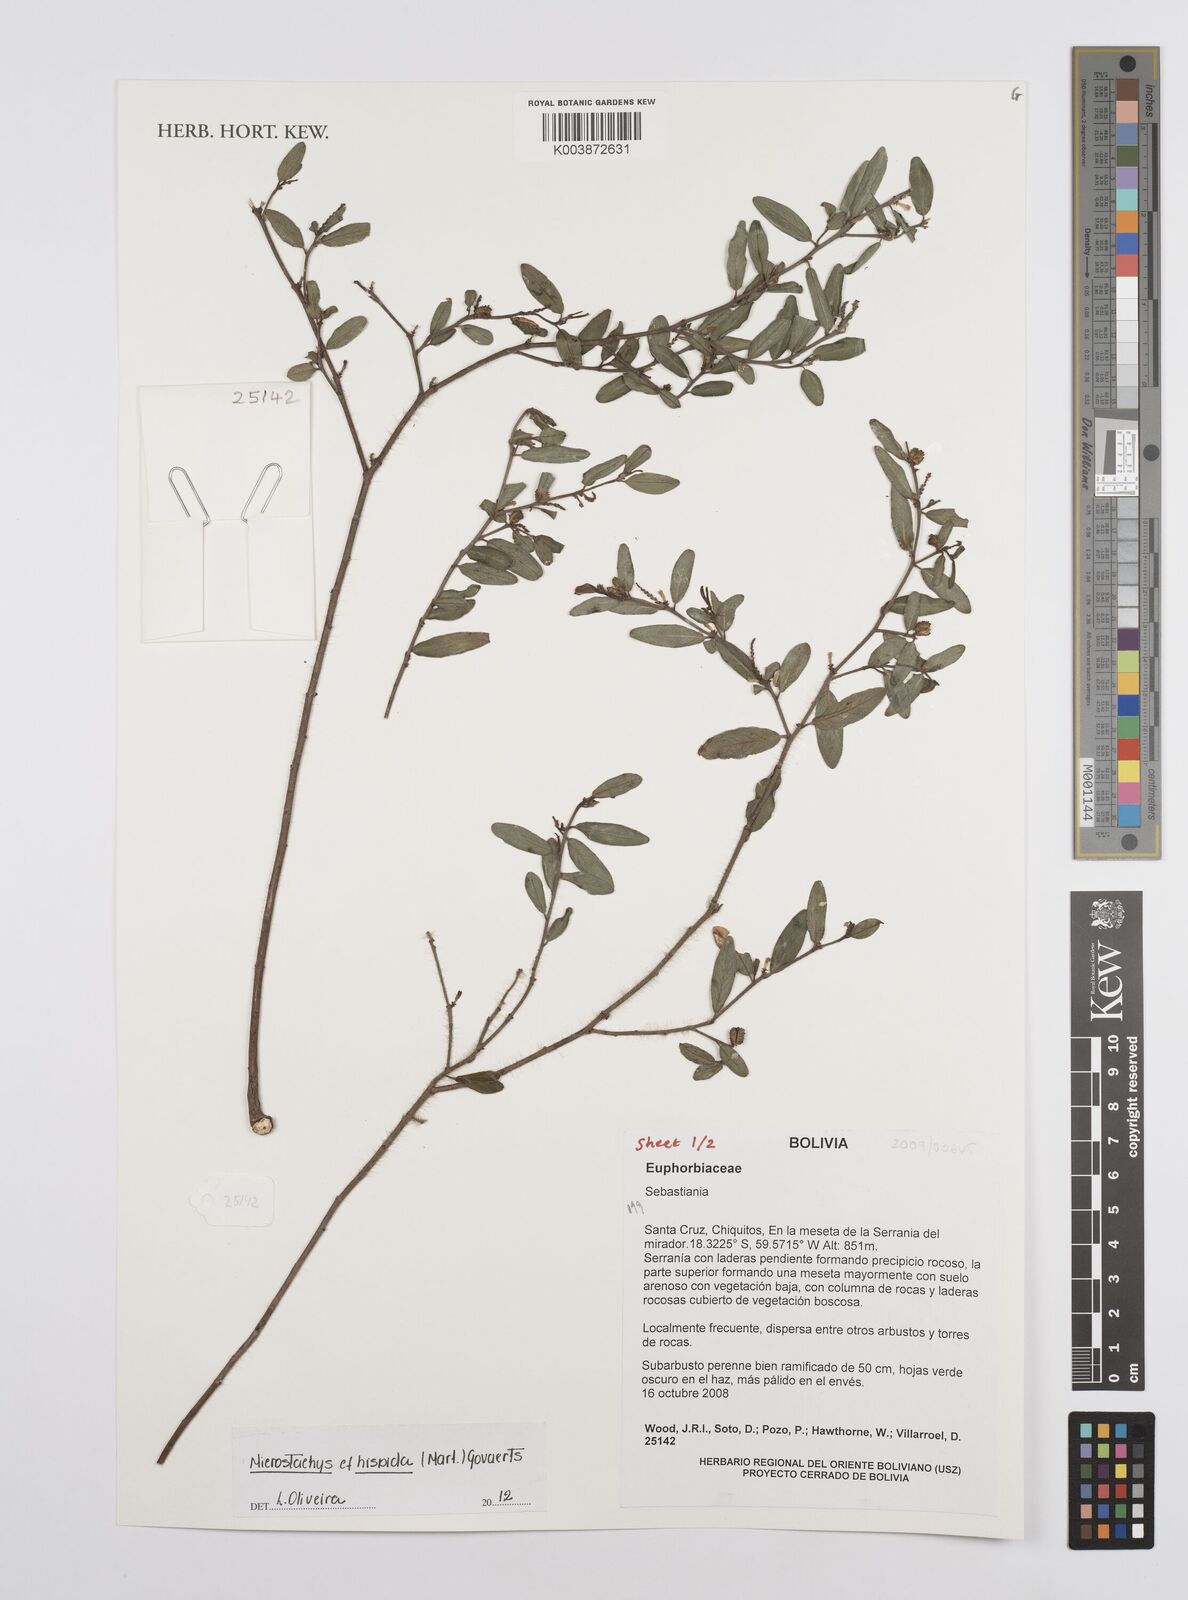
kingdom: Plantae
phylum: Tracheophyta
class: Magnoliopsida
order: Malpighiales
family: Euphorbiaceae
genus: Microstachys
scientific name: Microstachys hispida
